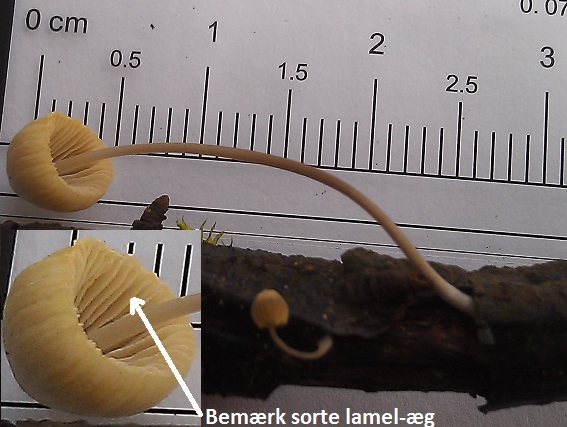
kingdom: Fungi
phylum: Basidiomycota
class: Agaricomycetes
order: Agaricales
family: Mycenaceae
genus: Mycena
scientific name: Mycena arcangeliana
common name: oliven-huesvamp
